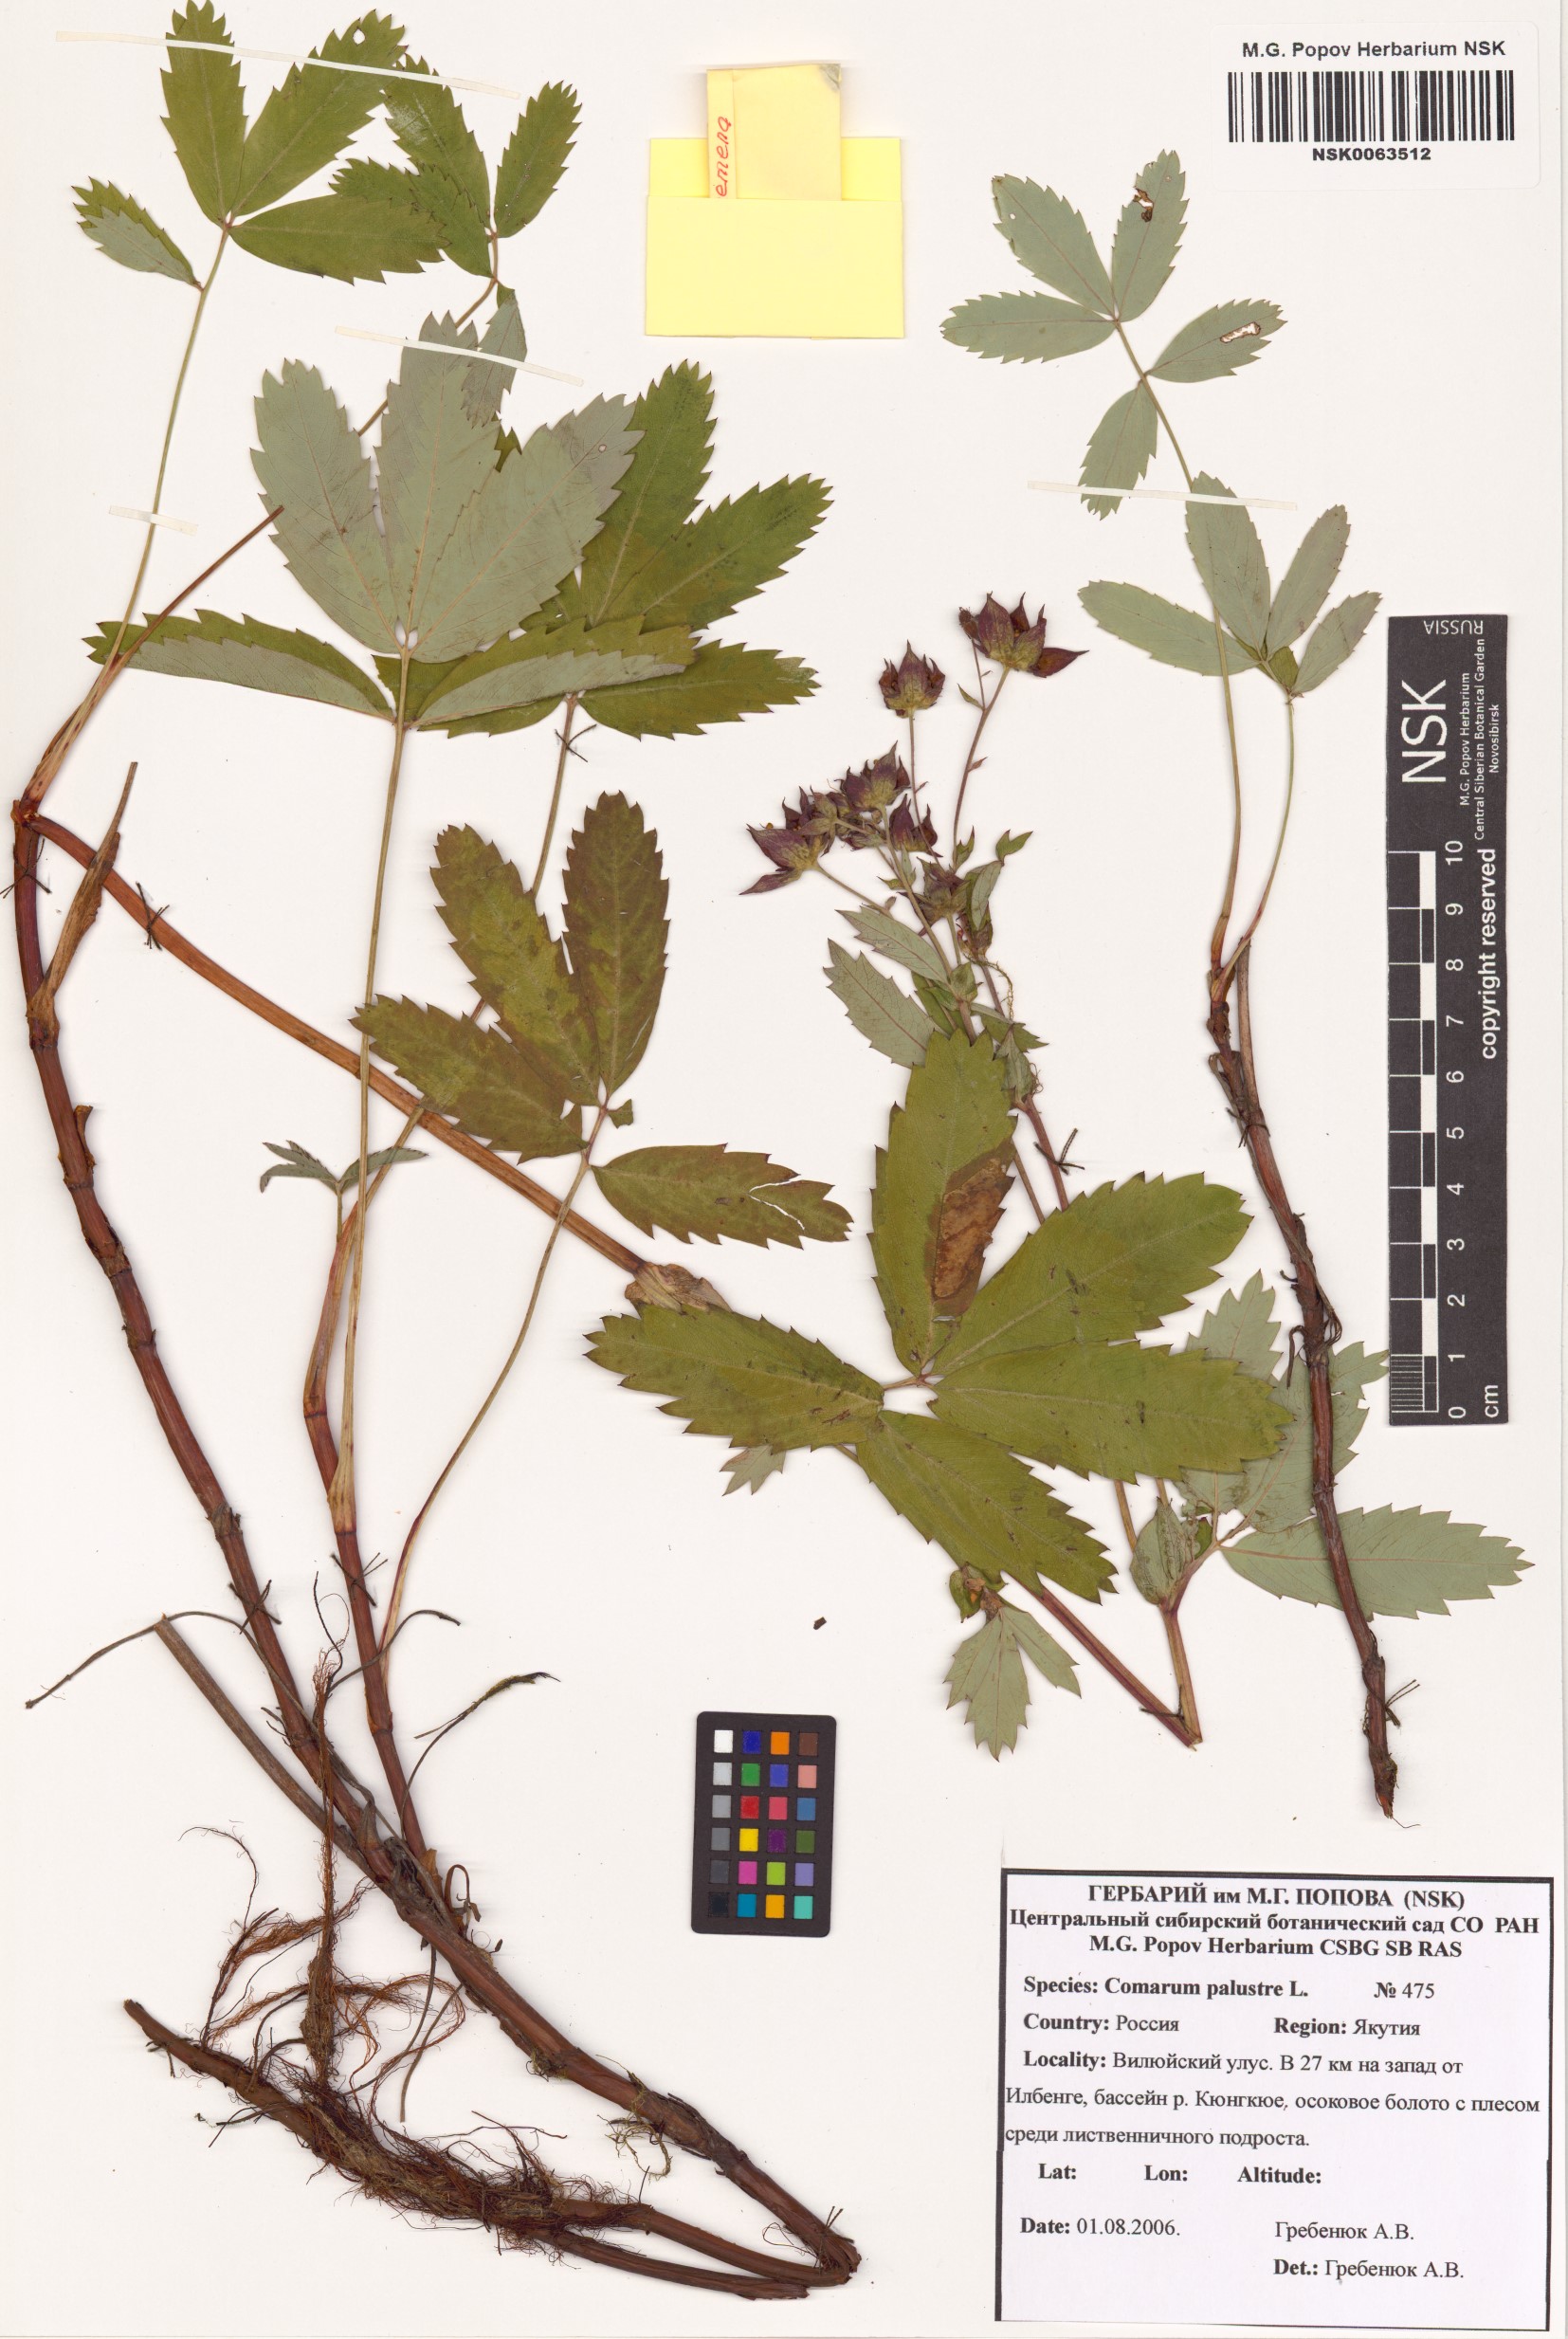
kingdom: Plantae
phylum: Tracheophyta
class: Magnoliopsida
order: Rosales
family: Rosaceae
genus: Comarum
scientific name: Comarum palustre
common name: Marsh cinquefoil
